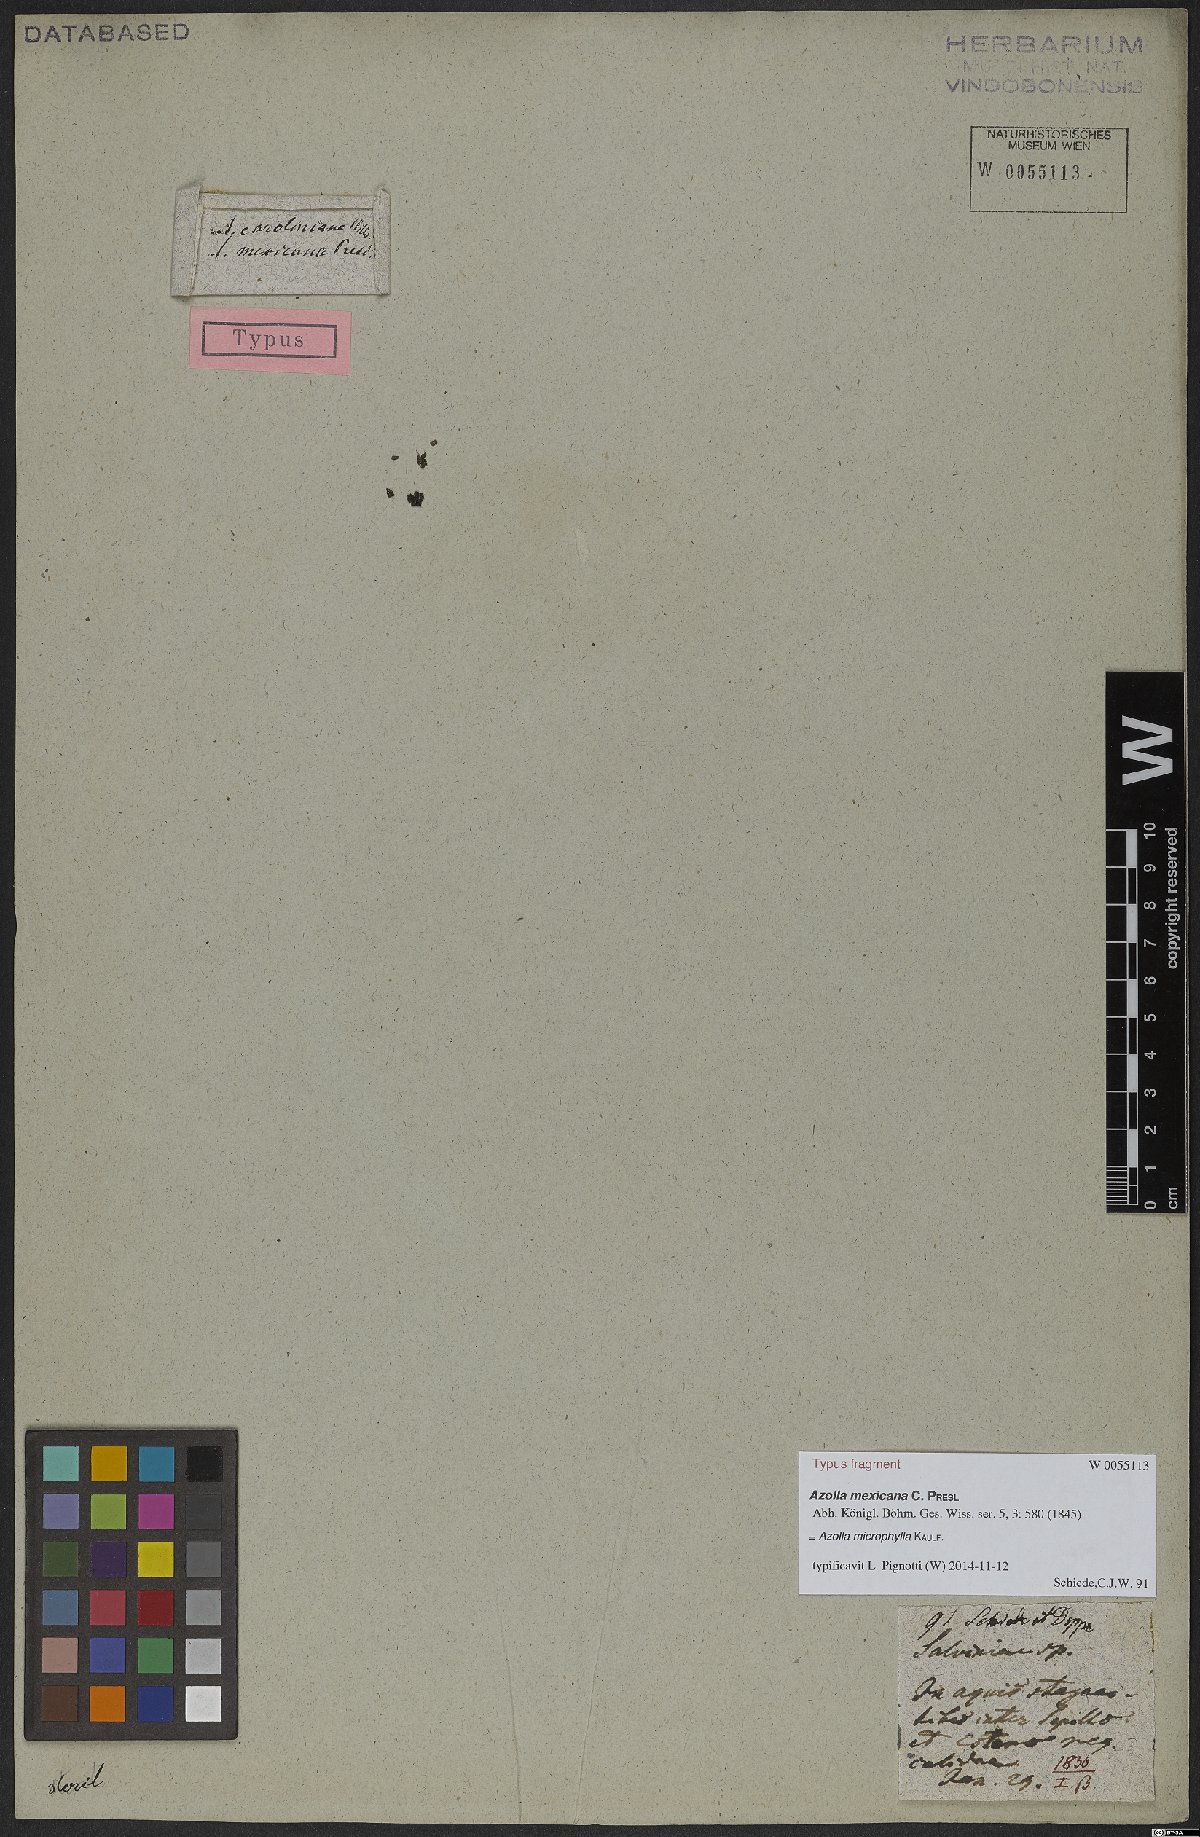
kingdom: Plantae
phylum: Tracheophyta
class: Polypodiopsida
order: Salviniales
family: Salviniaceae
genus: Azolla
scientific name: Azolla cristata
